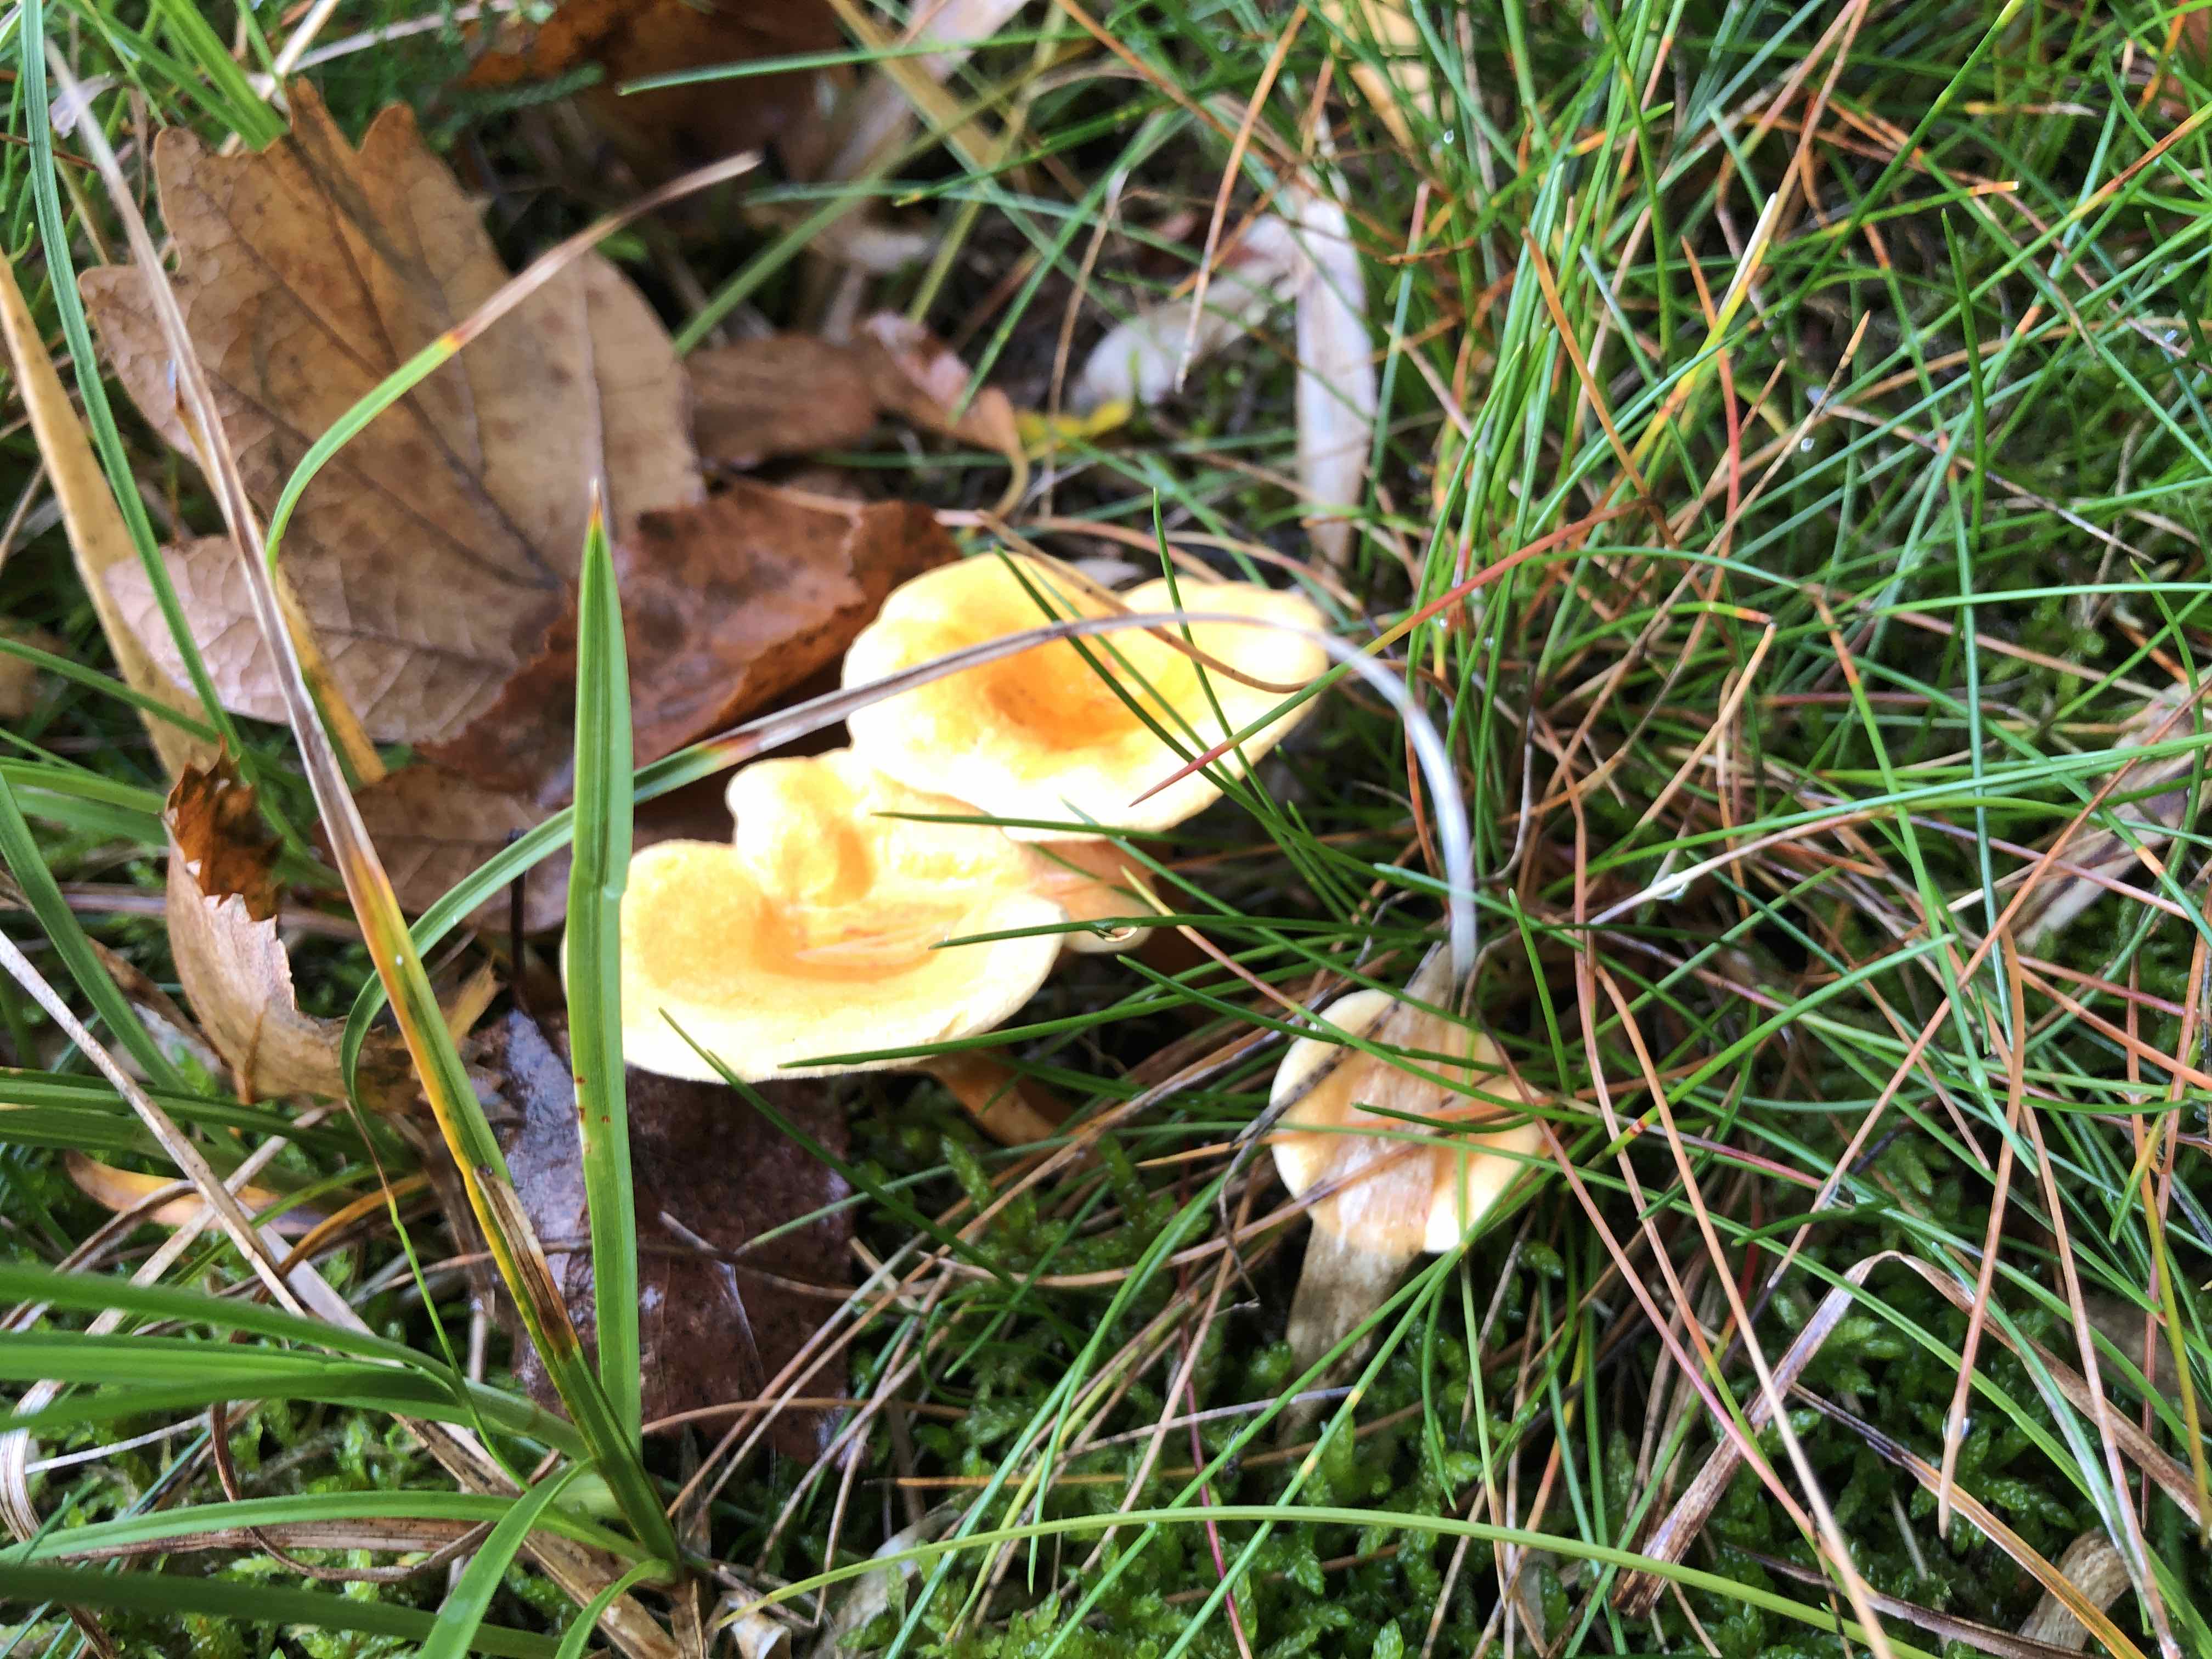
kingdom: Fungi
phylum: Basidiomycota
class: Agaricomycetes
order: Boletales
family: Hygrophoropsidaceae
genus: Hygrophoropsis
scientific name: Hygrophoropsis aurantiaca
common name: almindelig orangekantarel
